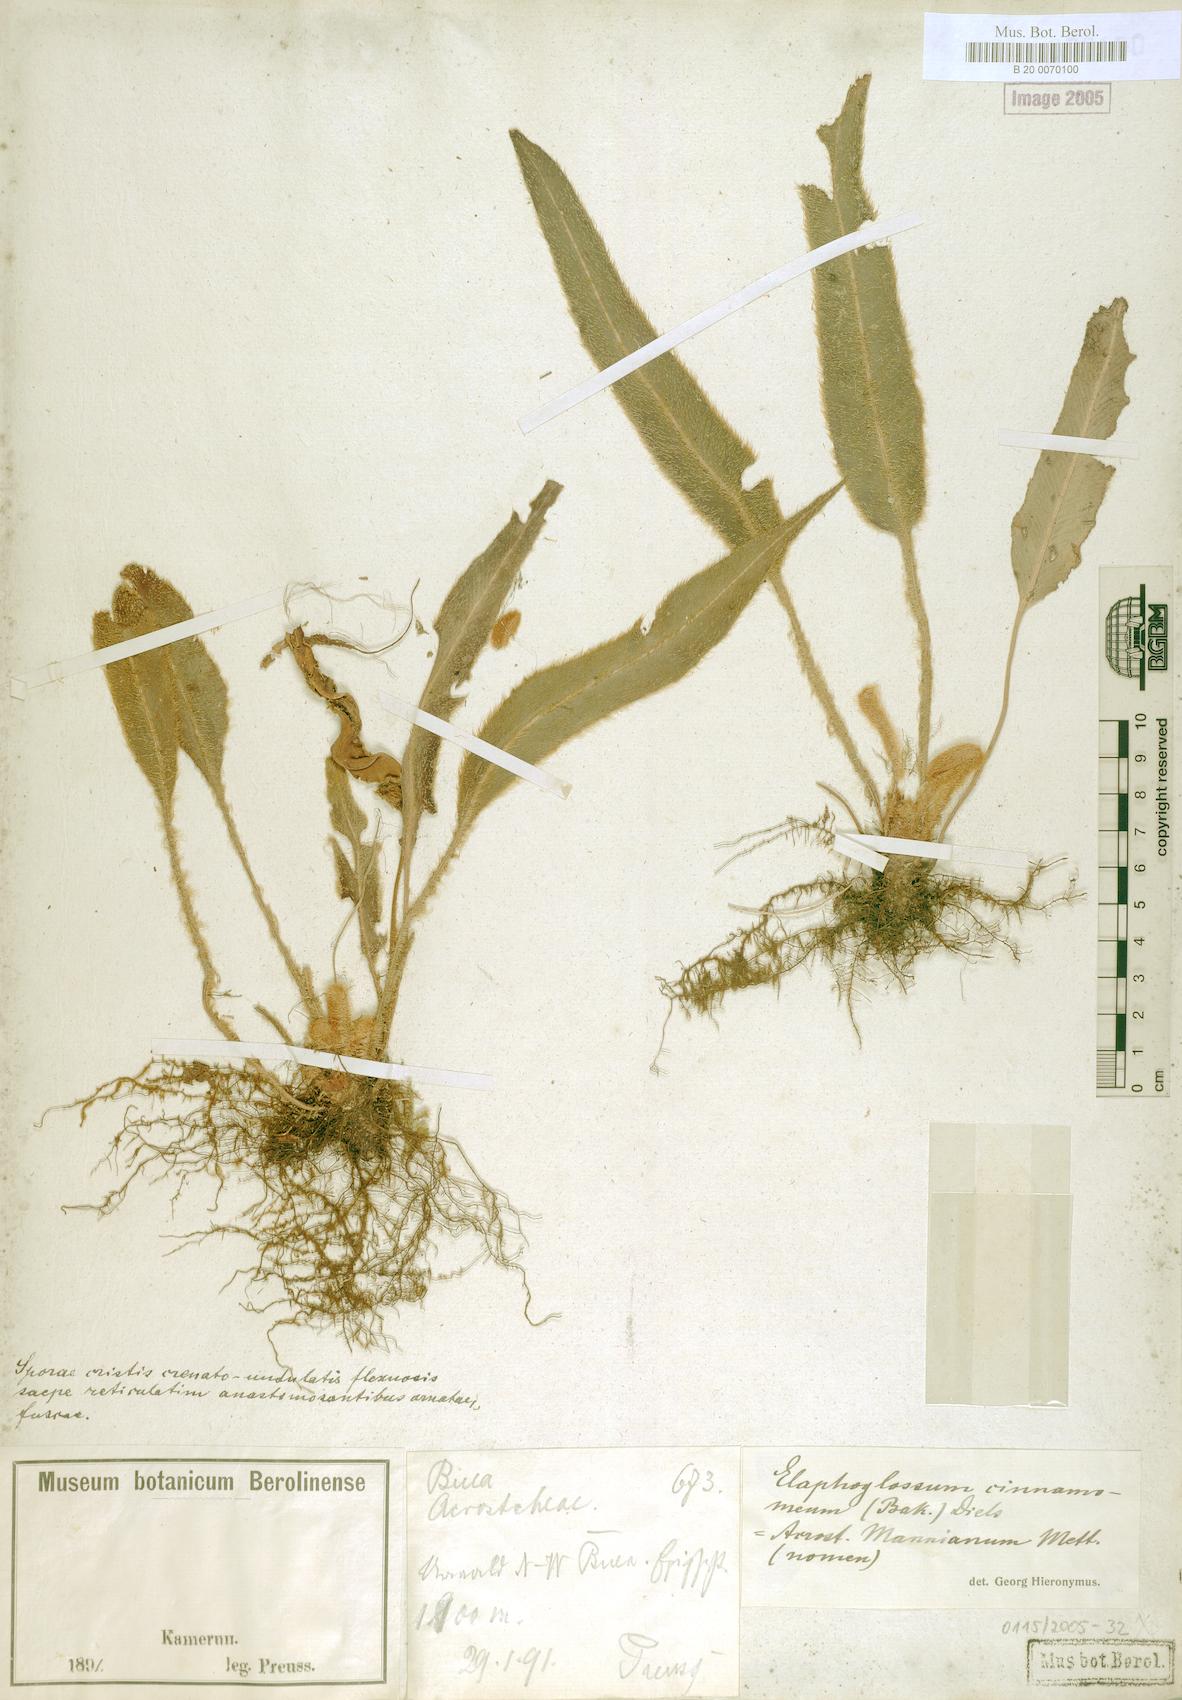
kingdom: Plantae
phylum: Tracheophyta
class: Polypodiopsida
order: Polypodiales
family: Dryopteridaceae
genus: Elaphoglossum
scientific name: Elaphoglossum cinnamomeum
